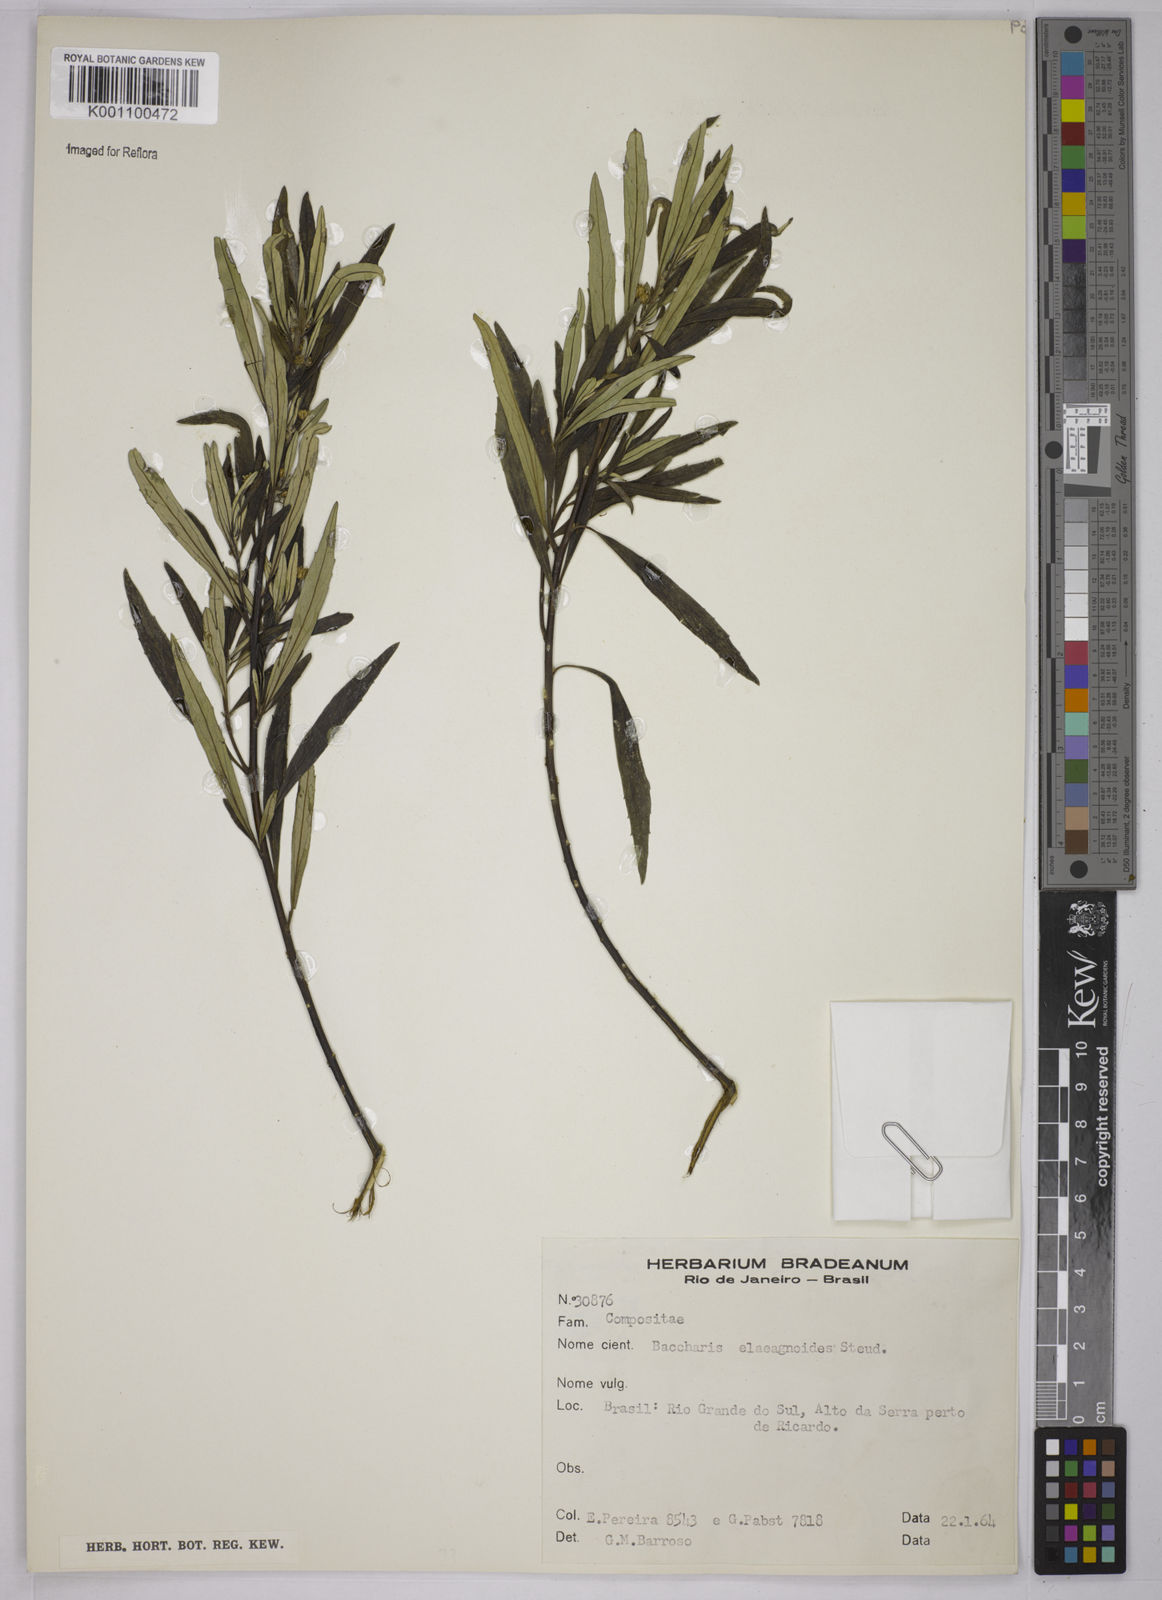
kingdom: Plantae
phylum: Tracheophyta
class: Magnoliopsida
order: Asterales
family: Asteraceae
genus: Baccharis
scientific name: Baccharis
